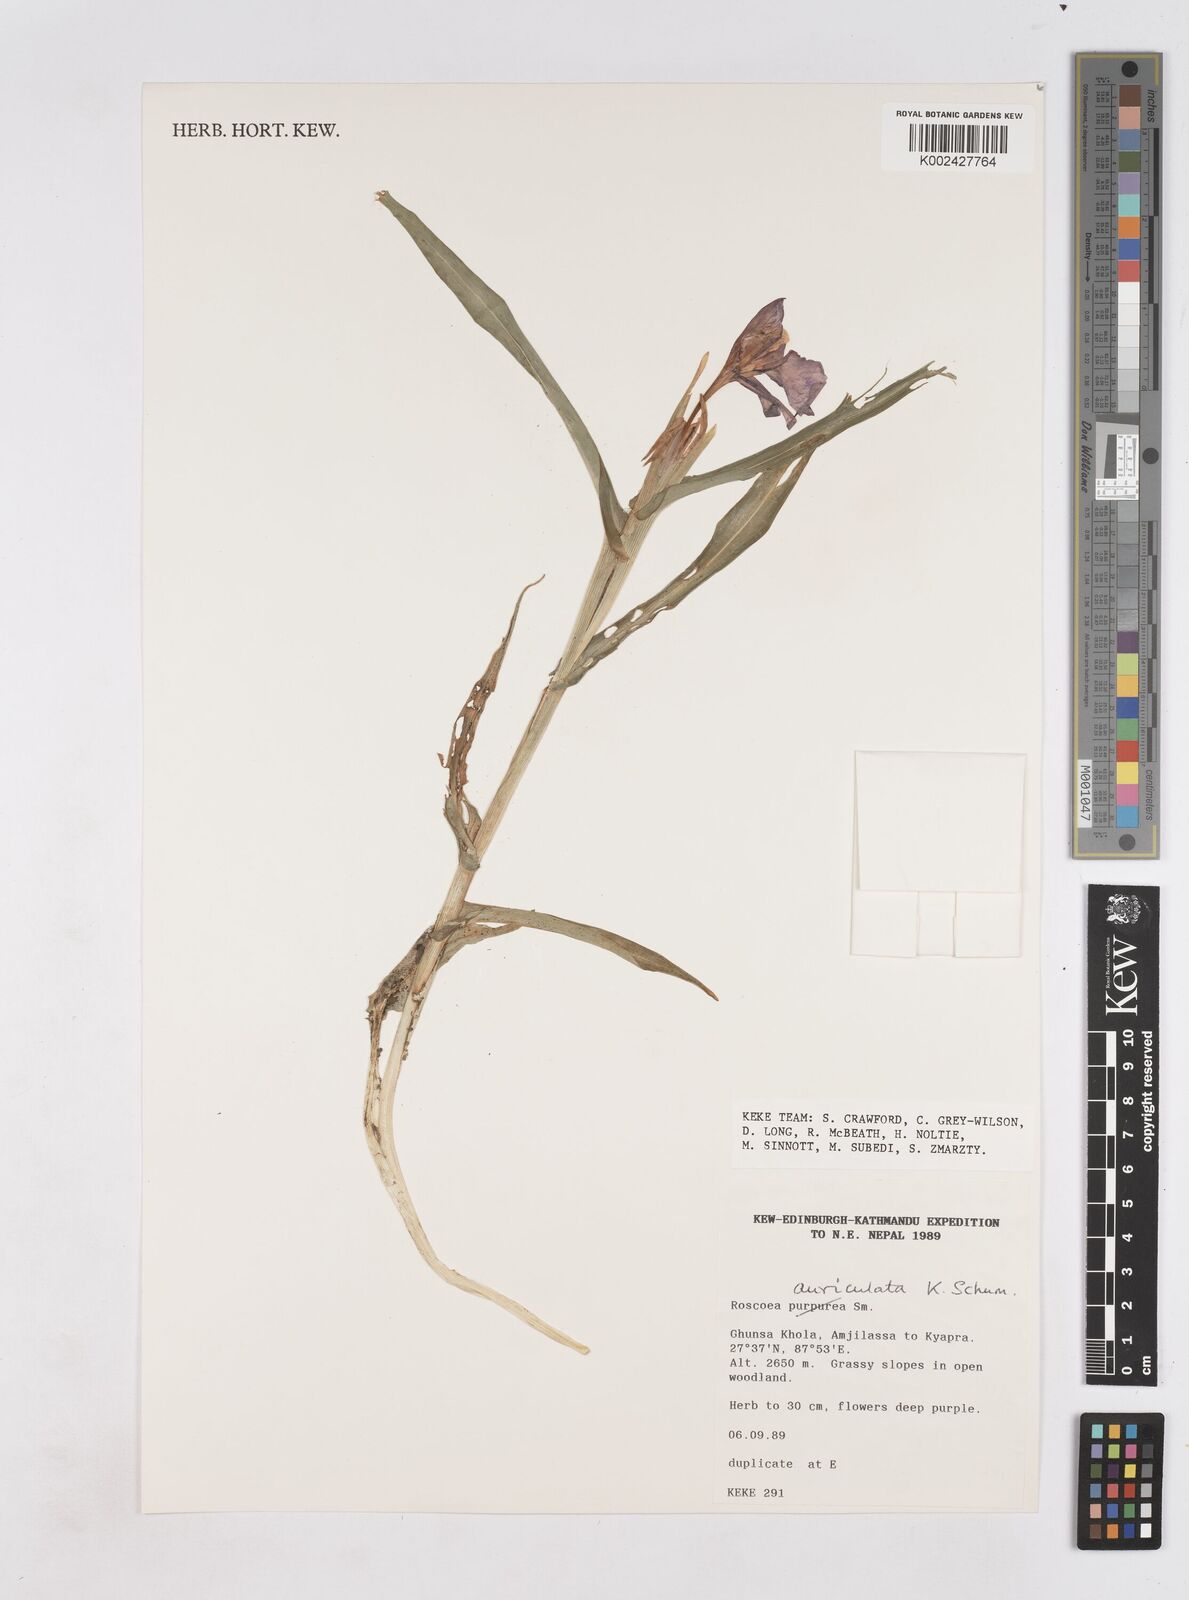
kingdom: Plantae
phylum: Tracheophyta
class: Liliopsida
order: Zingiberales
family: Zingiberaceae
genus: Roscoea
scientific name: Roscoea auriculata
